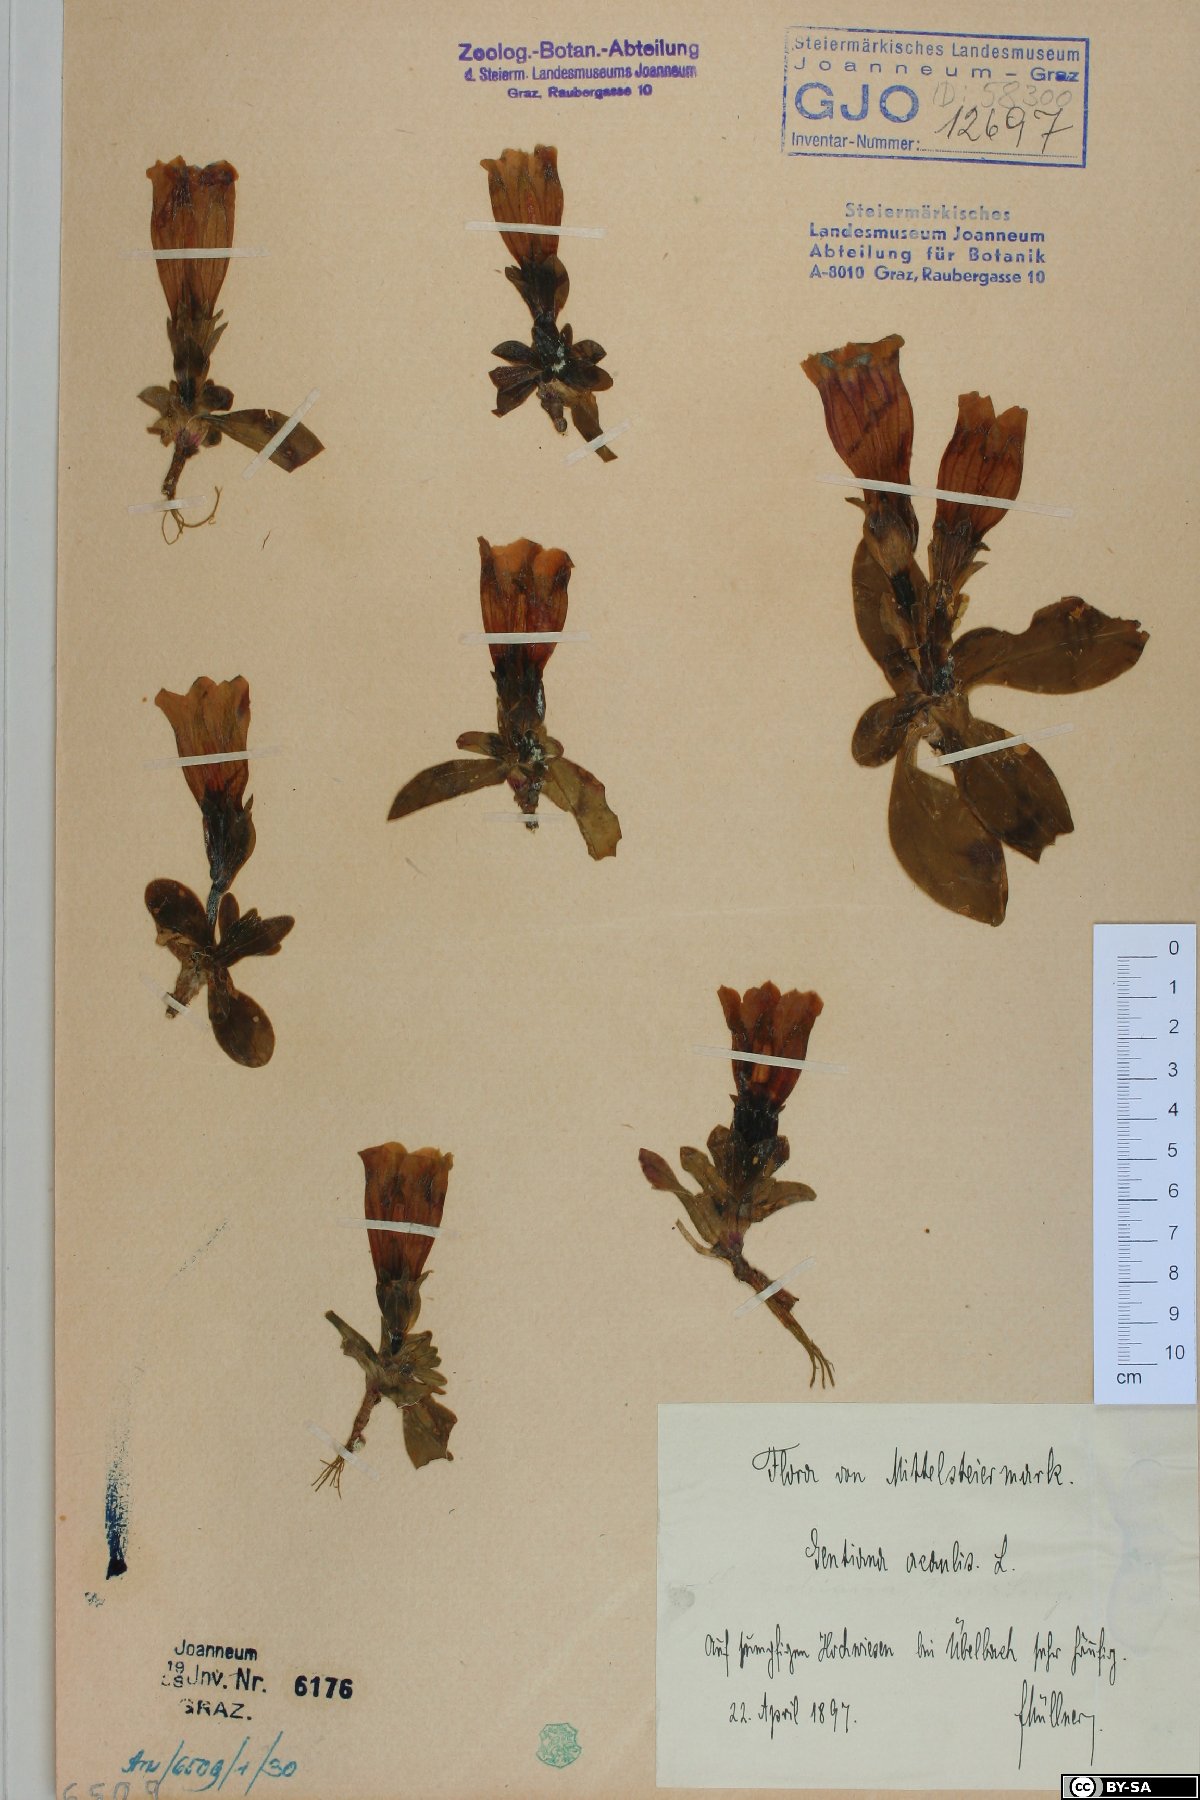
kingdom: Plantae
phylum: Tracheophyta
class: Magnoliopsida
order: Gentianales
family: Gentianaceae
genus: Gentiana
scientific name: Gentiana acaulis
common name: Trumpet gentian
